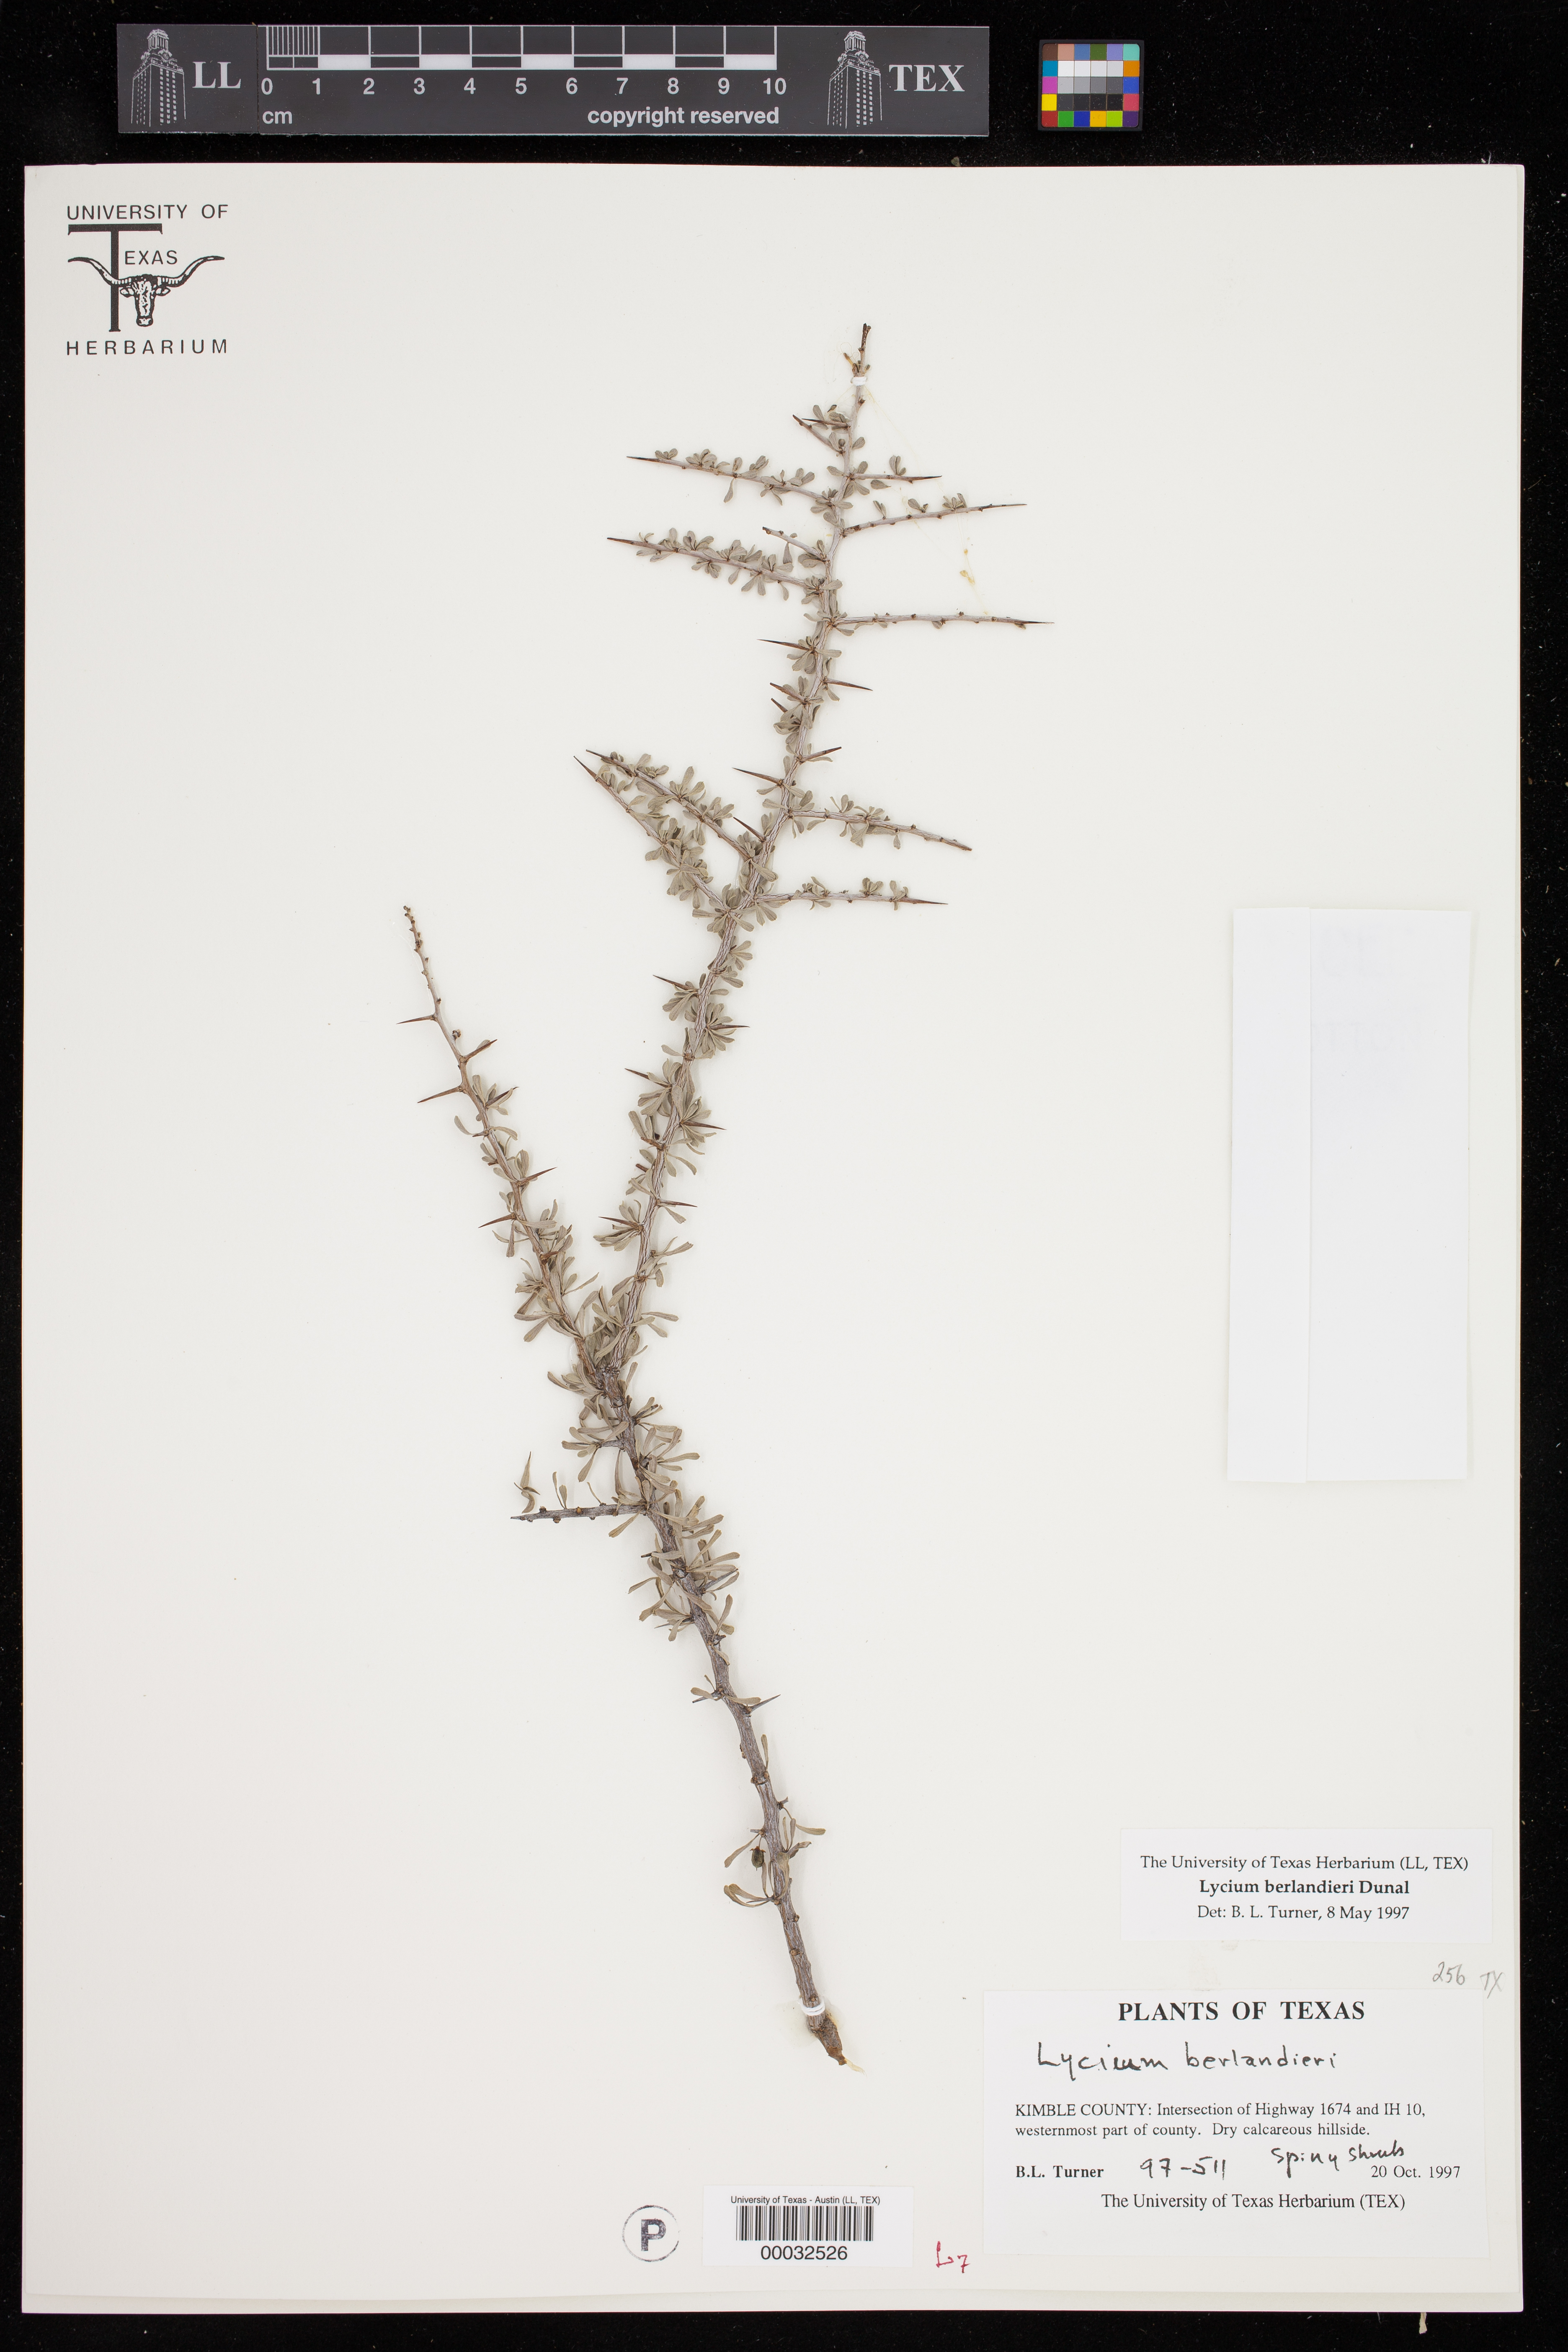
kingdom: Plantae
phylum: Tracheophyta
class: Magnoliopsida
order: Solanales
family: Solanaceae
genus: Lycium
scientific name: Lycium berlandieri
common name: Berlandier wolfberry
